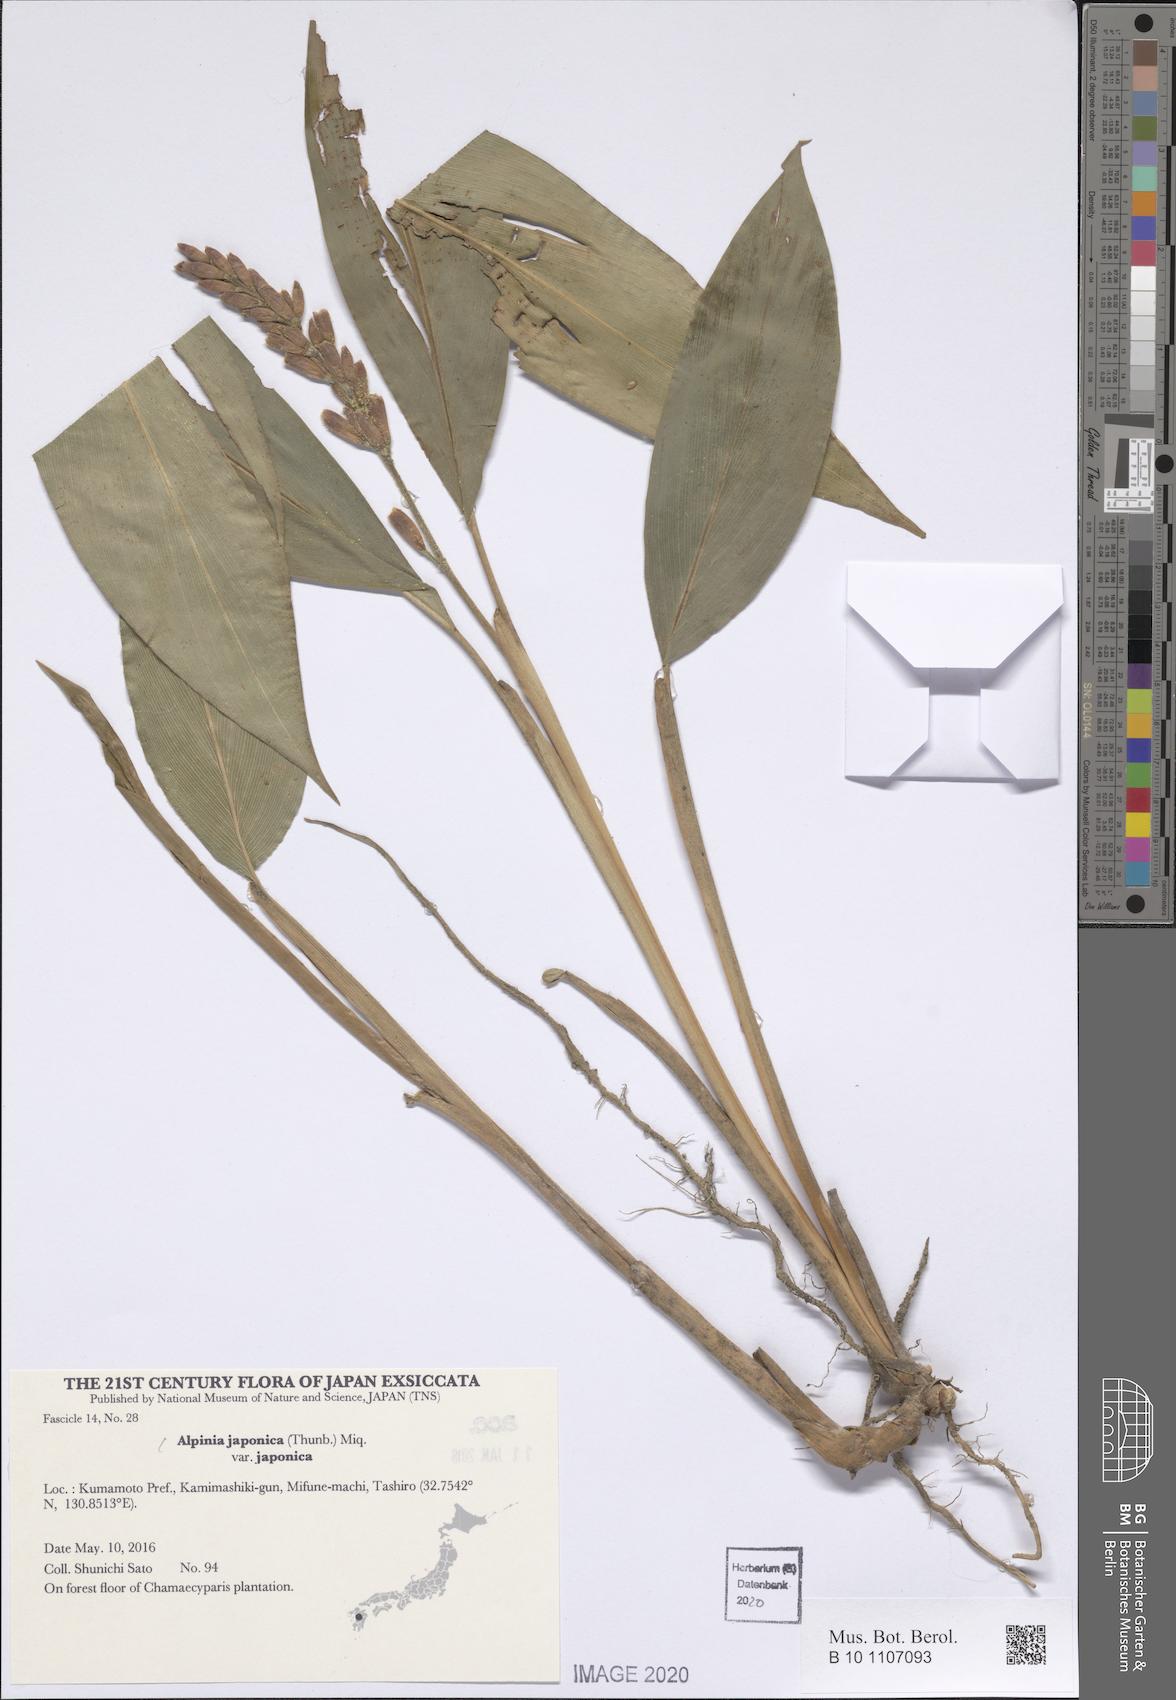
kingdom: Plantae
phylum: Tracheophyta
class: Liliopsida
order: Zingiberales
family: Zingiberaceae
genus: Alpinia
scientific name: Alpinia japonica
